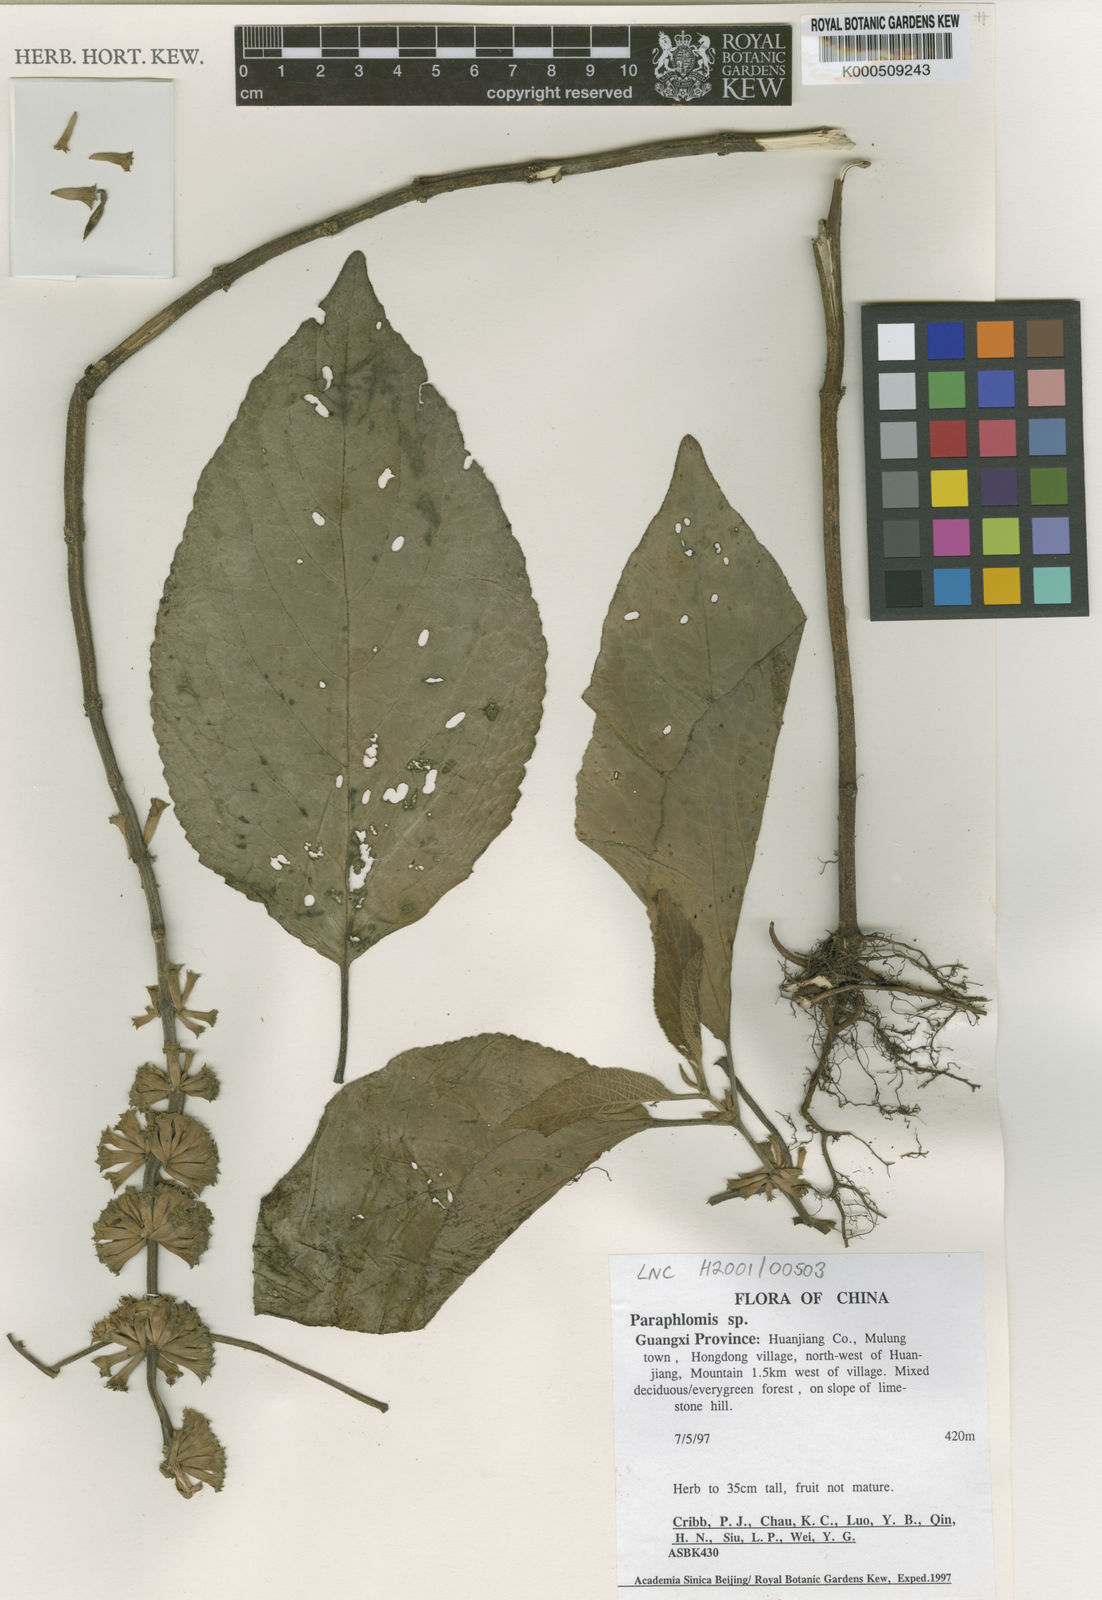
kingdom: Plantae
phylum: Tracheophyta
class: Magnoliopsida
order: Lamiales
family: Lamiaceae
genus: Paraphlomis
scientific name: Paraphlomis
